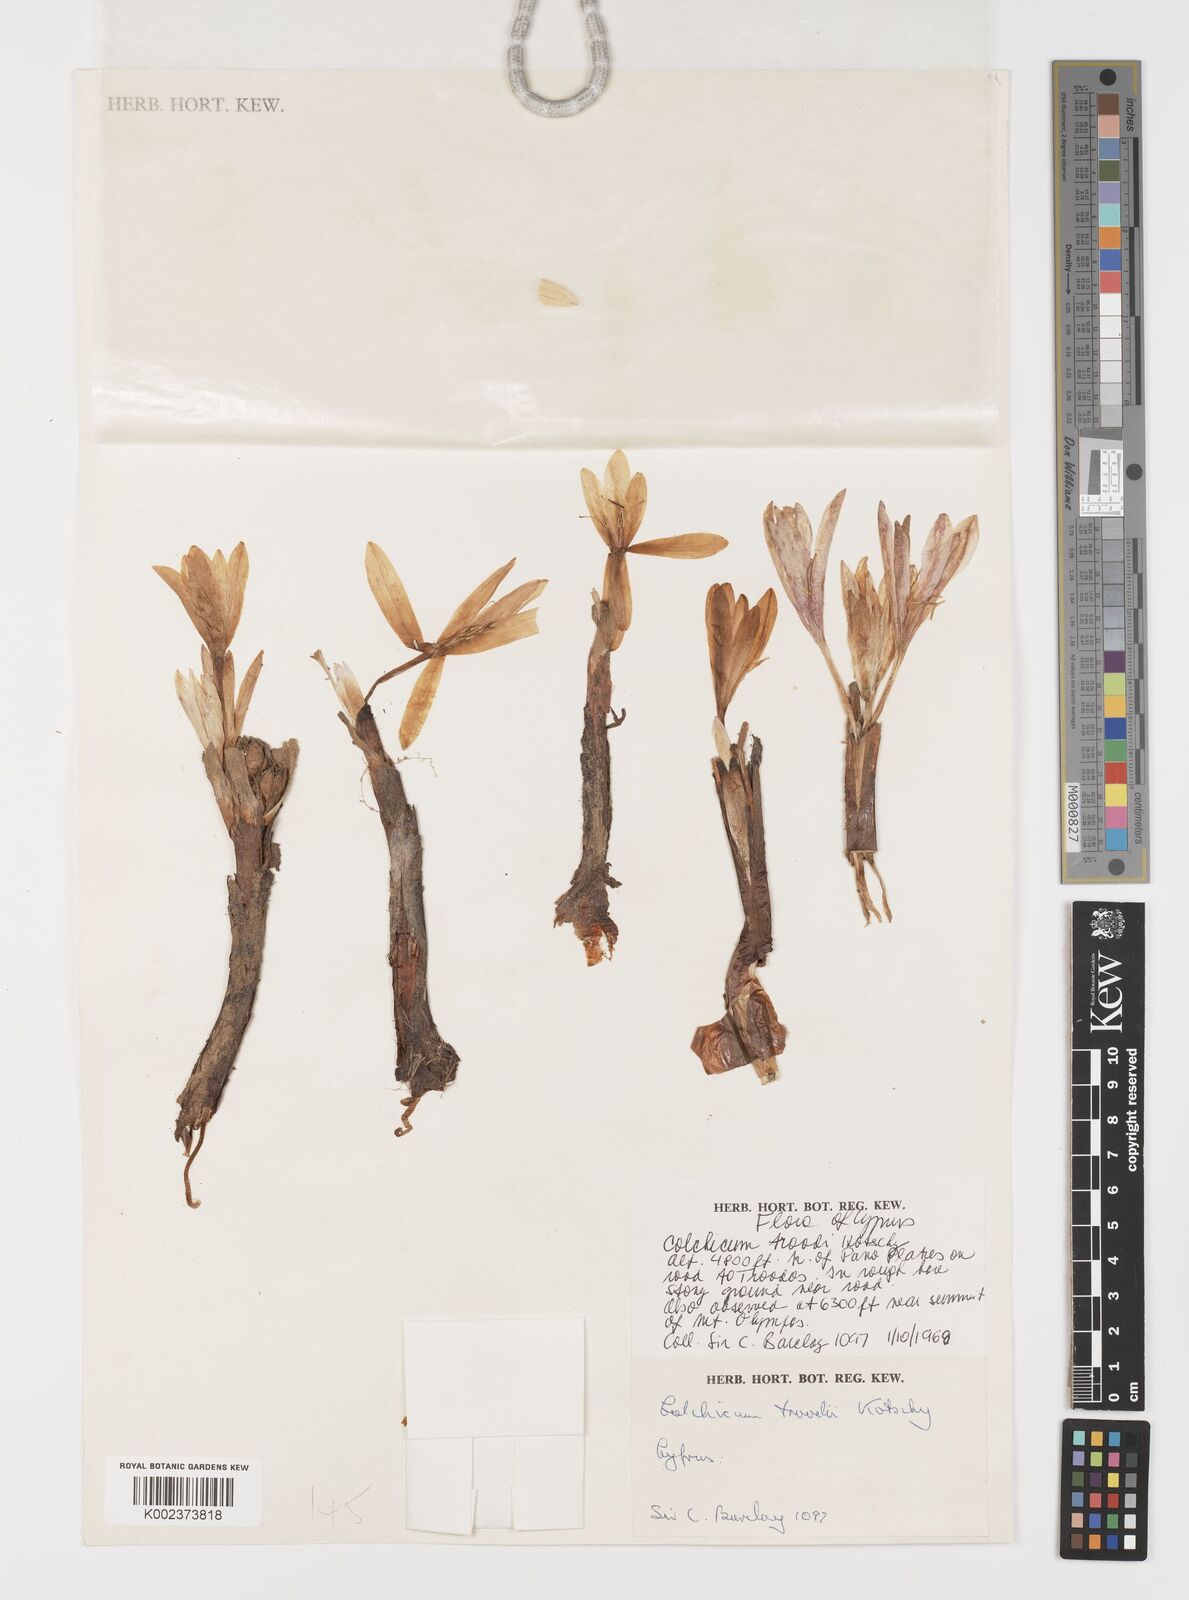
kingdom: Plantae
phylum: Tracheophyta
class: Liliopsida
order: Liliales
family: Colchicaceae
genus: Colchicum
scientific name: Colchicum troodi
